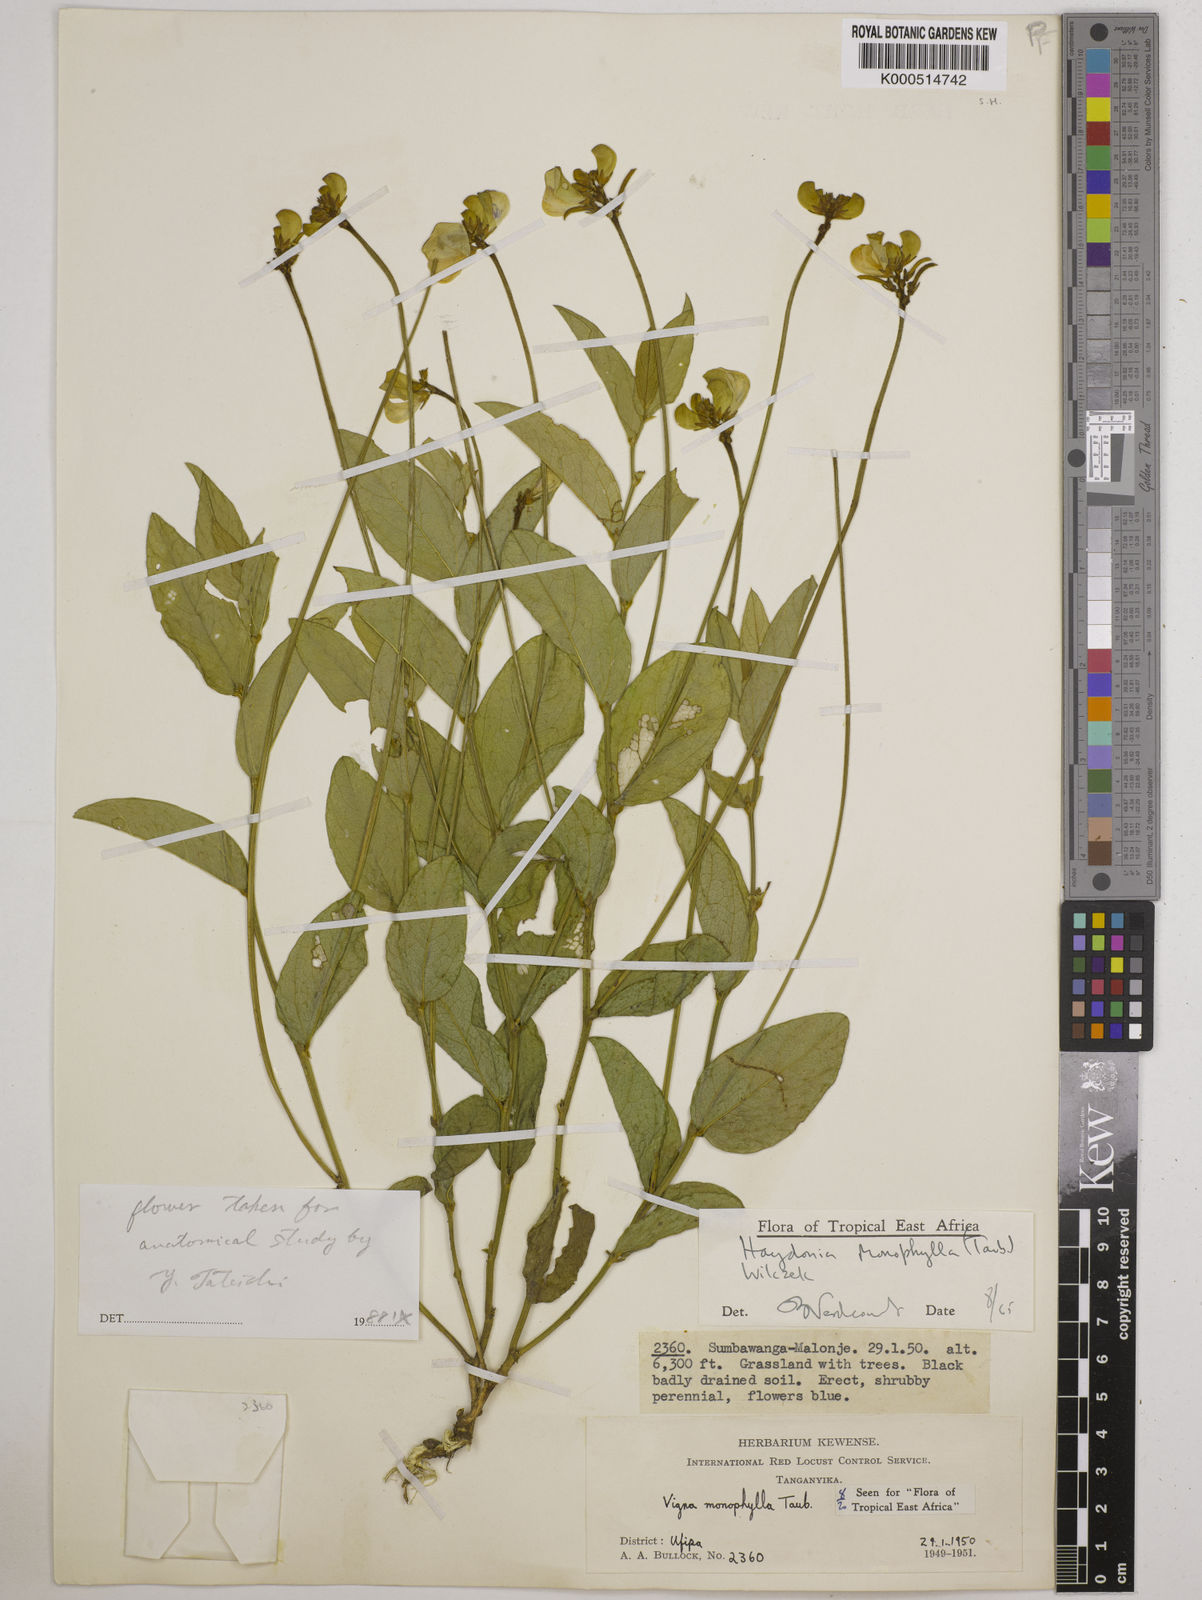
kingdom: Plantae
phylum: Tracheophyta
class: Magnoliopsida
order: Fabales
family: Fabaceae
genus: Vigna
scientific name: Vigna monophylla
